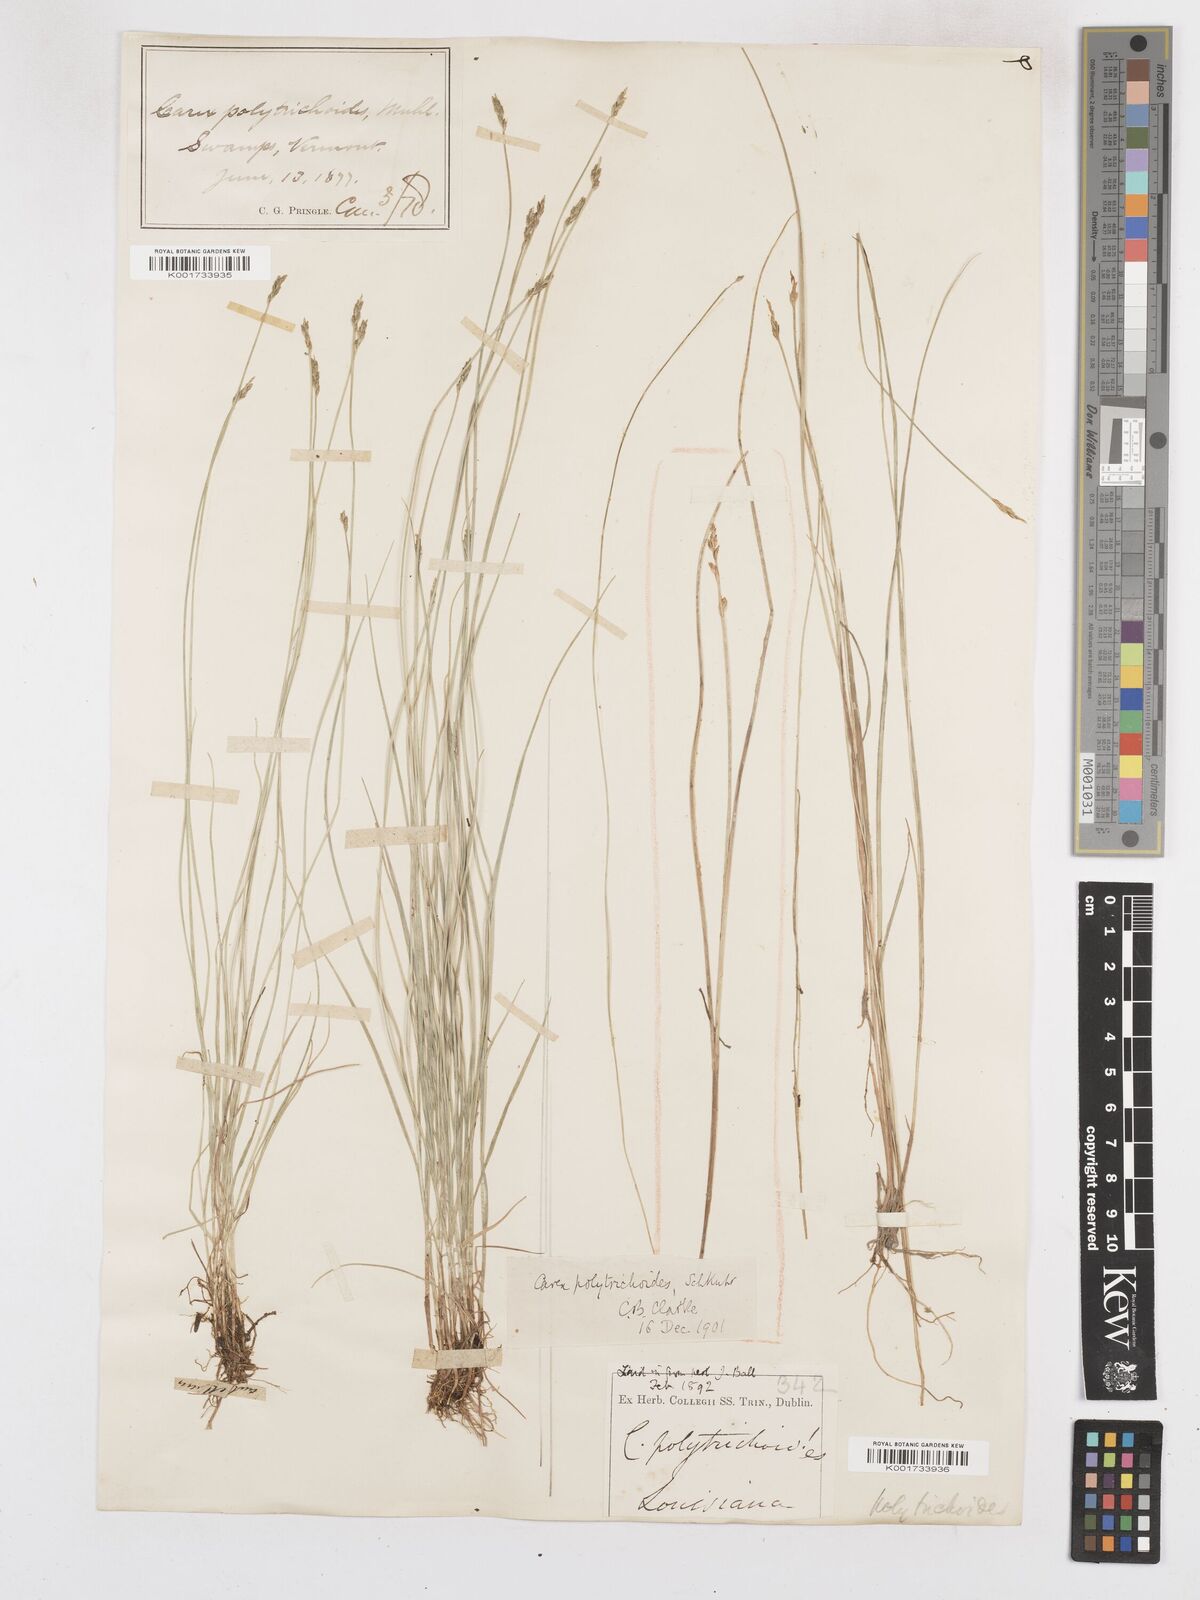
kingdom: Plantae
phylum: Tracheophyta
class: Liliopsida
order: Poales
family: Cyperaceae
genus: Carex
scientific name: Carex leptalea
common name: Bristly-stalked sedge
